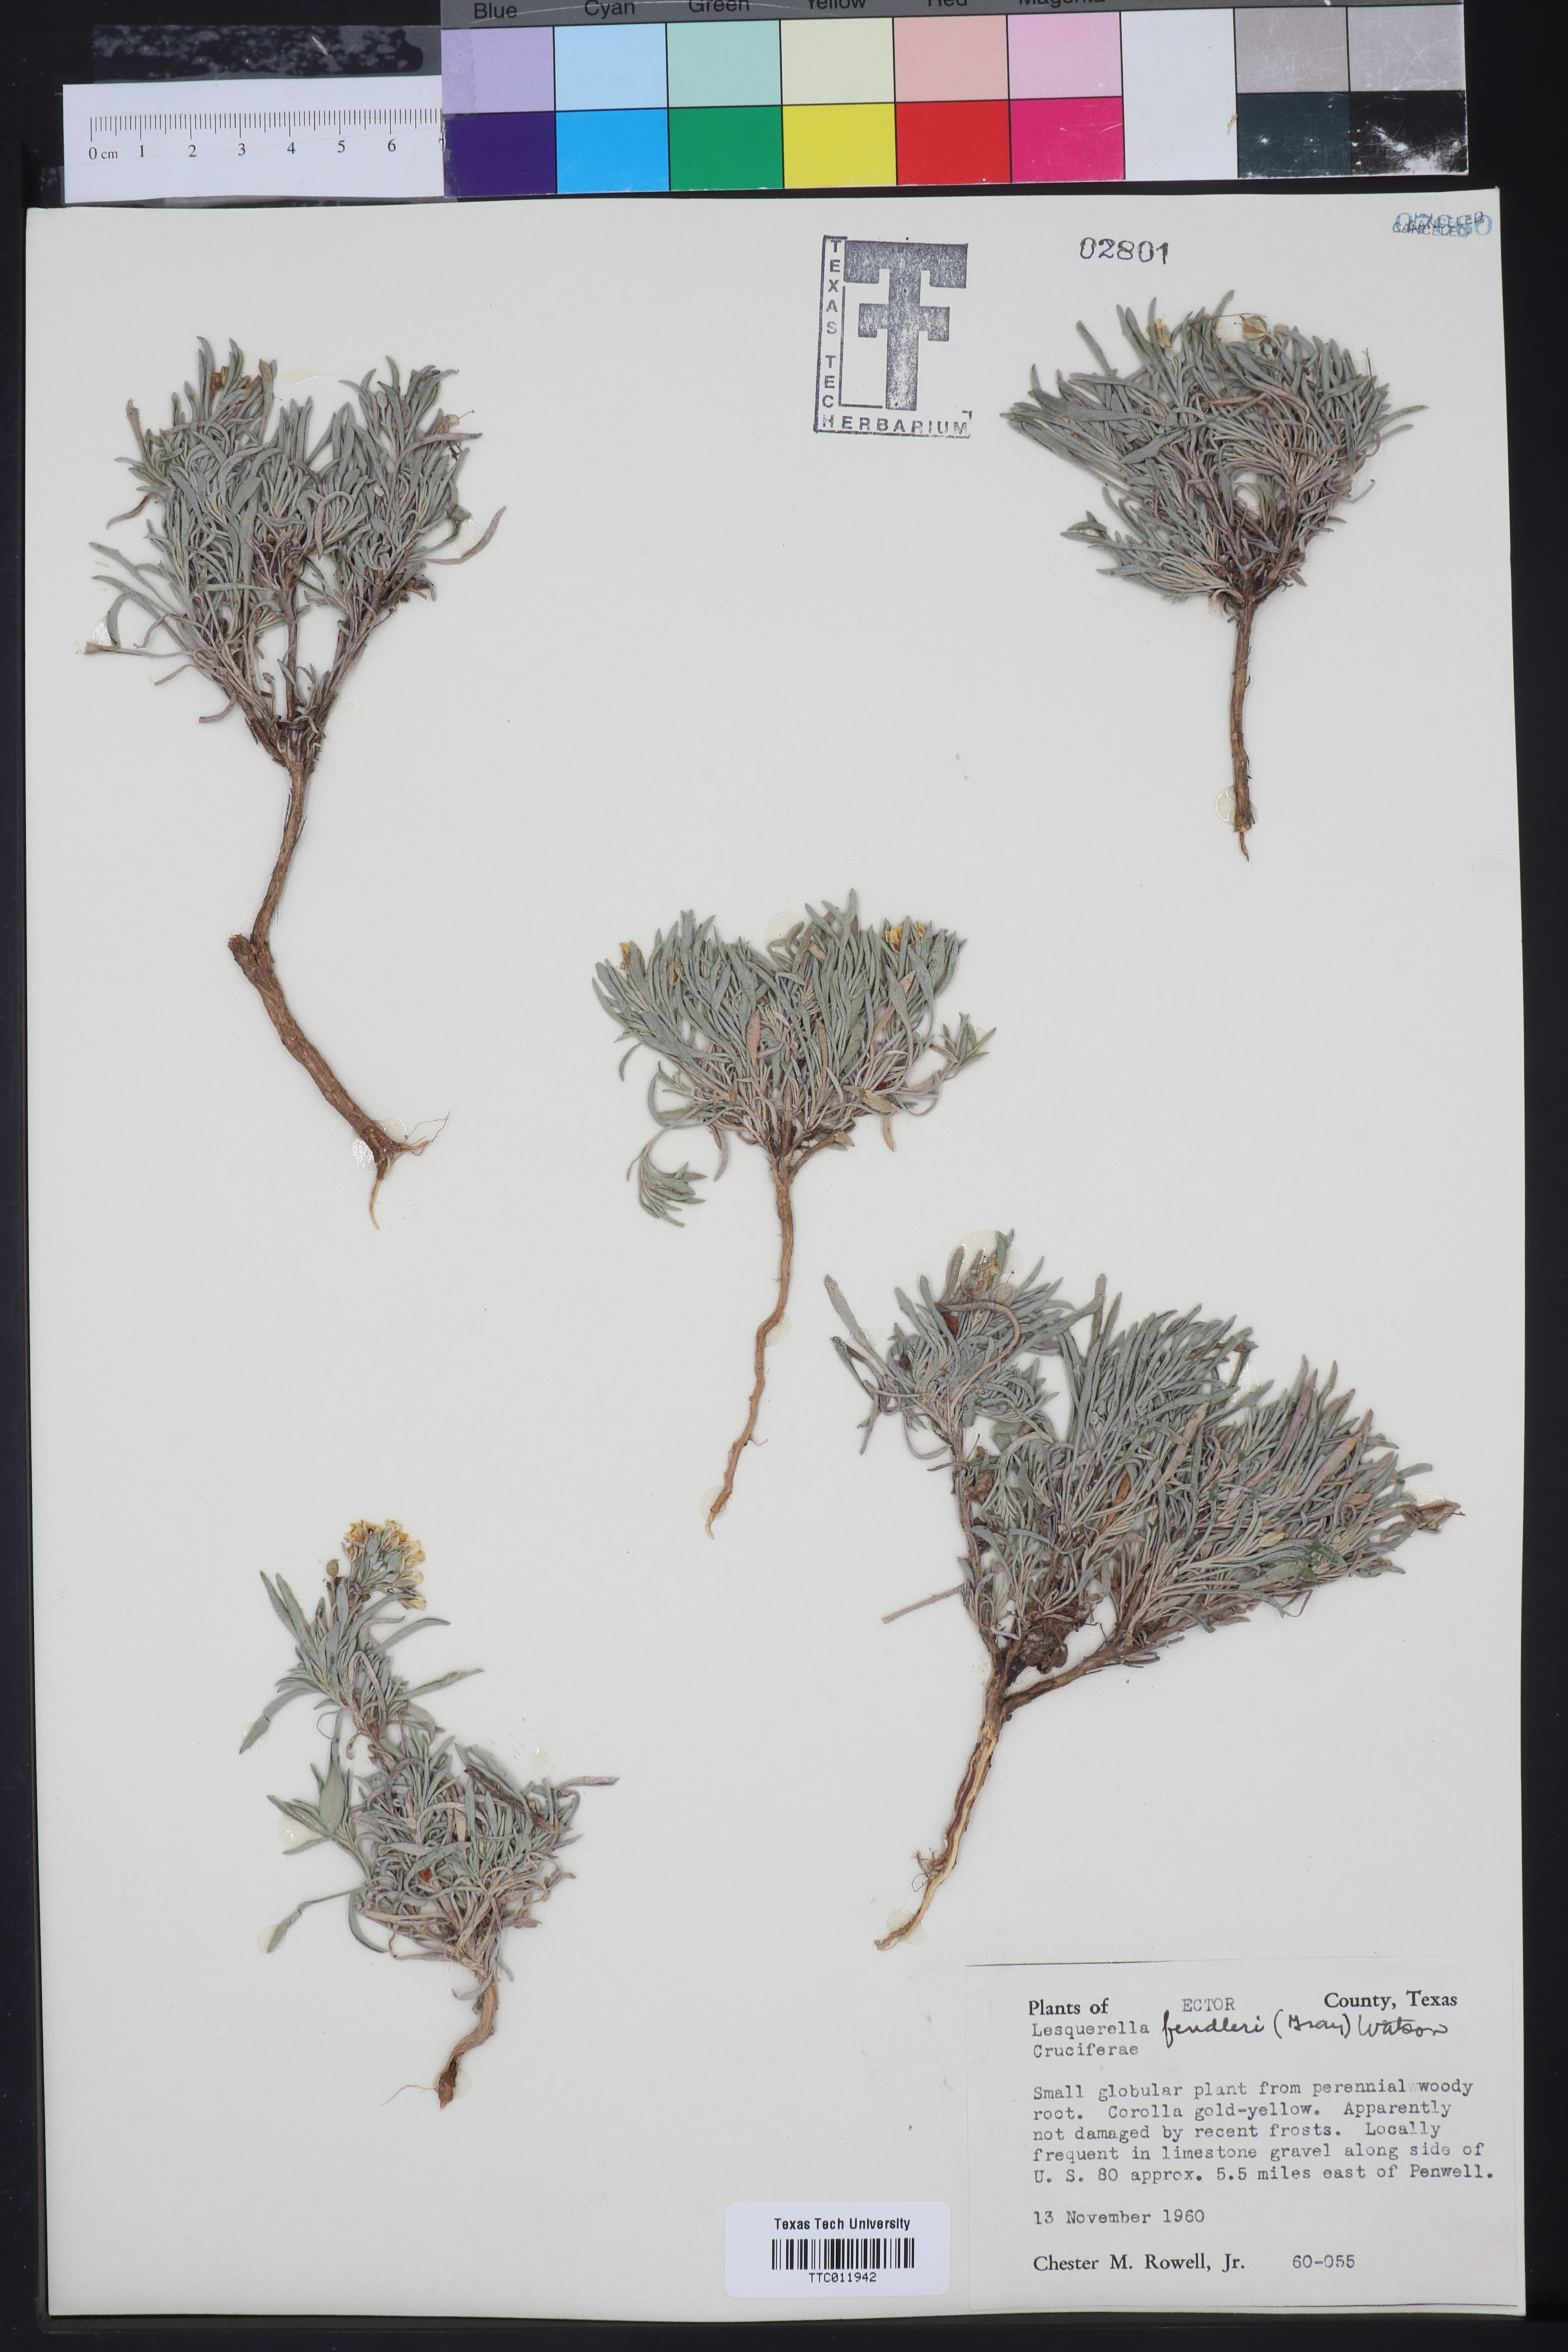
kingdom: Plantae
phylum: Tracheophyta
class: Magnoliopsida
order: Brassicales
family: Brassicaceae
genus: Physaria
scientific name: Physaria fendleri
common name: Fendler's bladderpod
